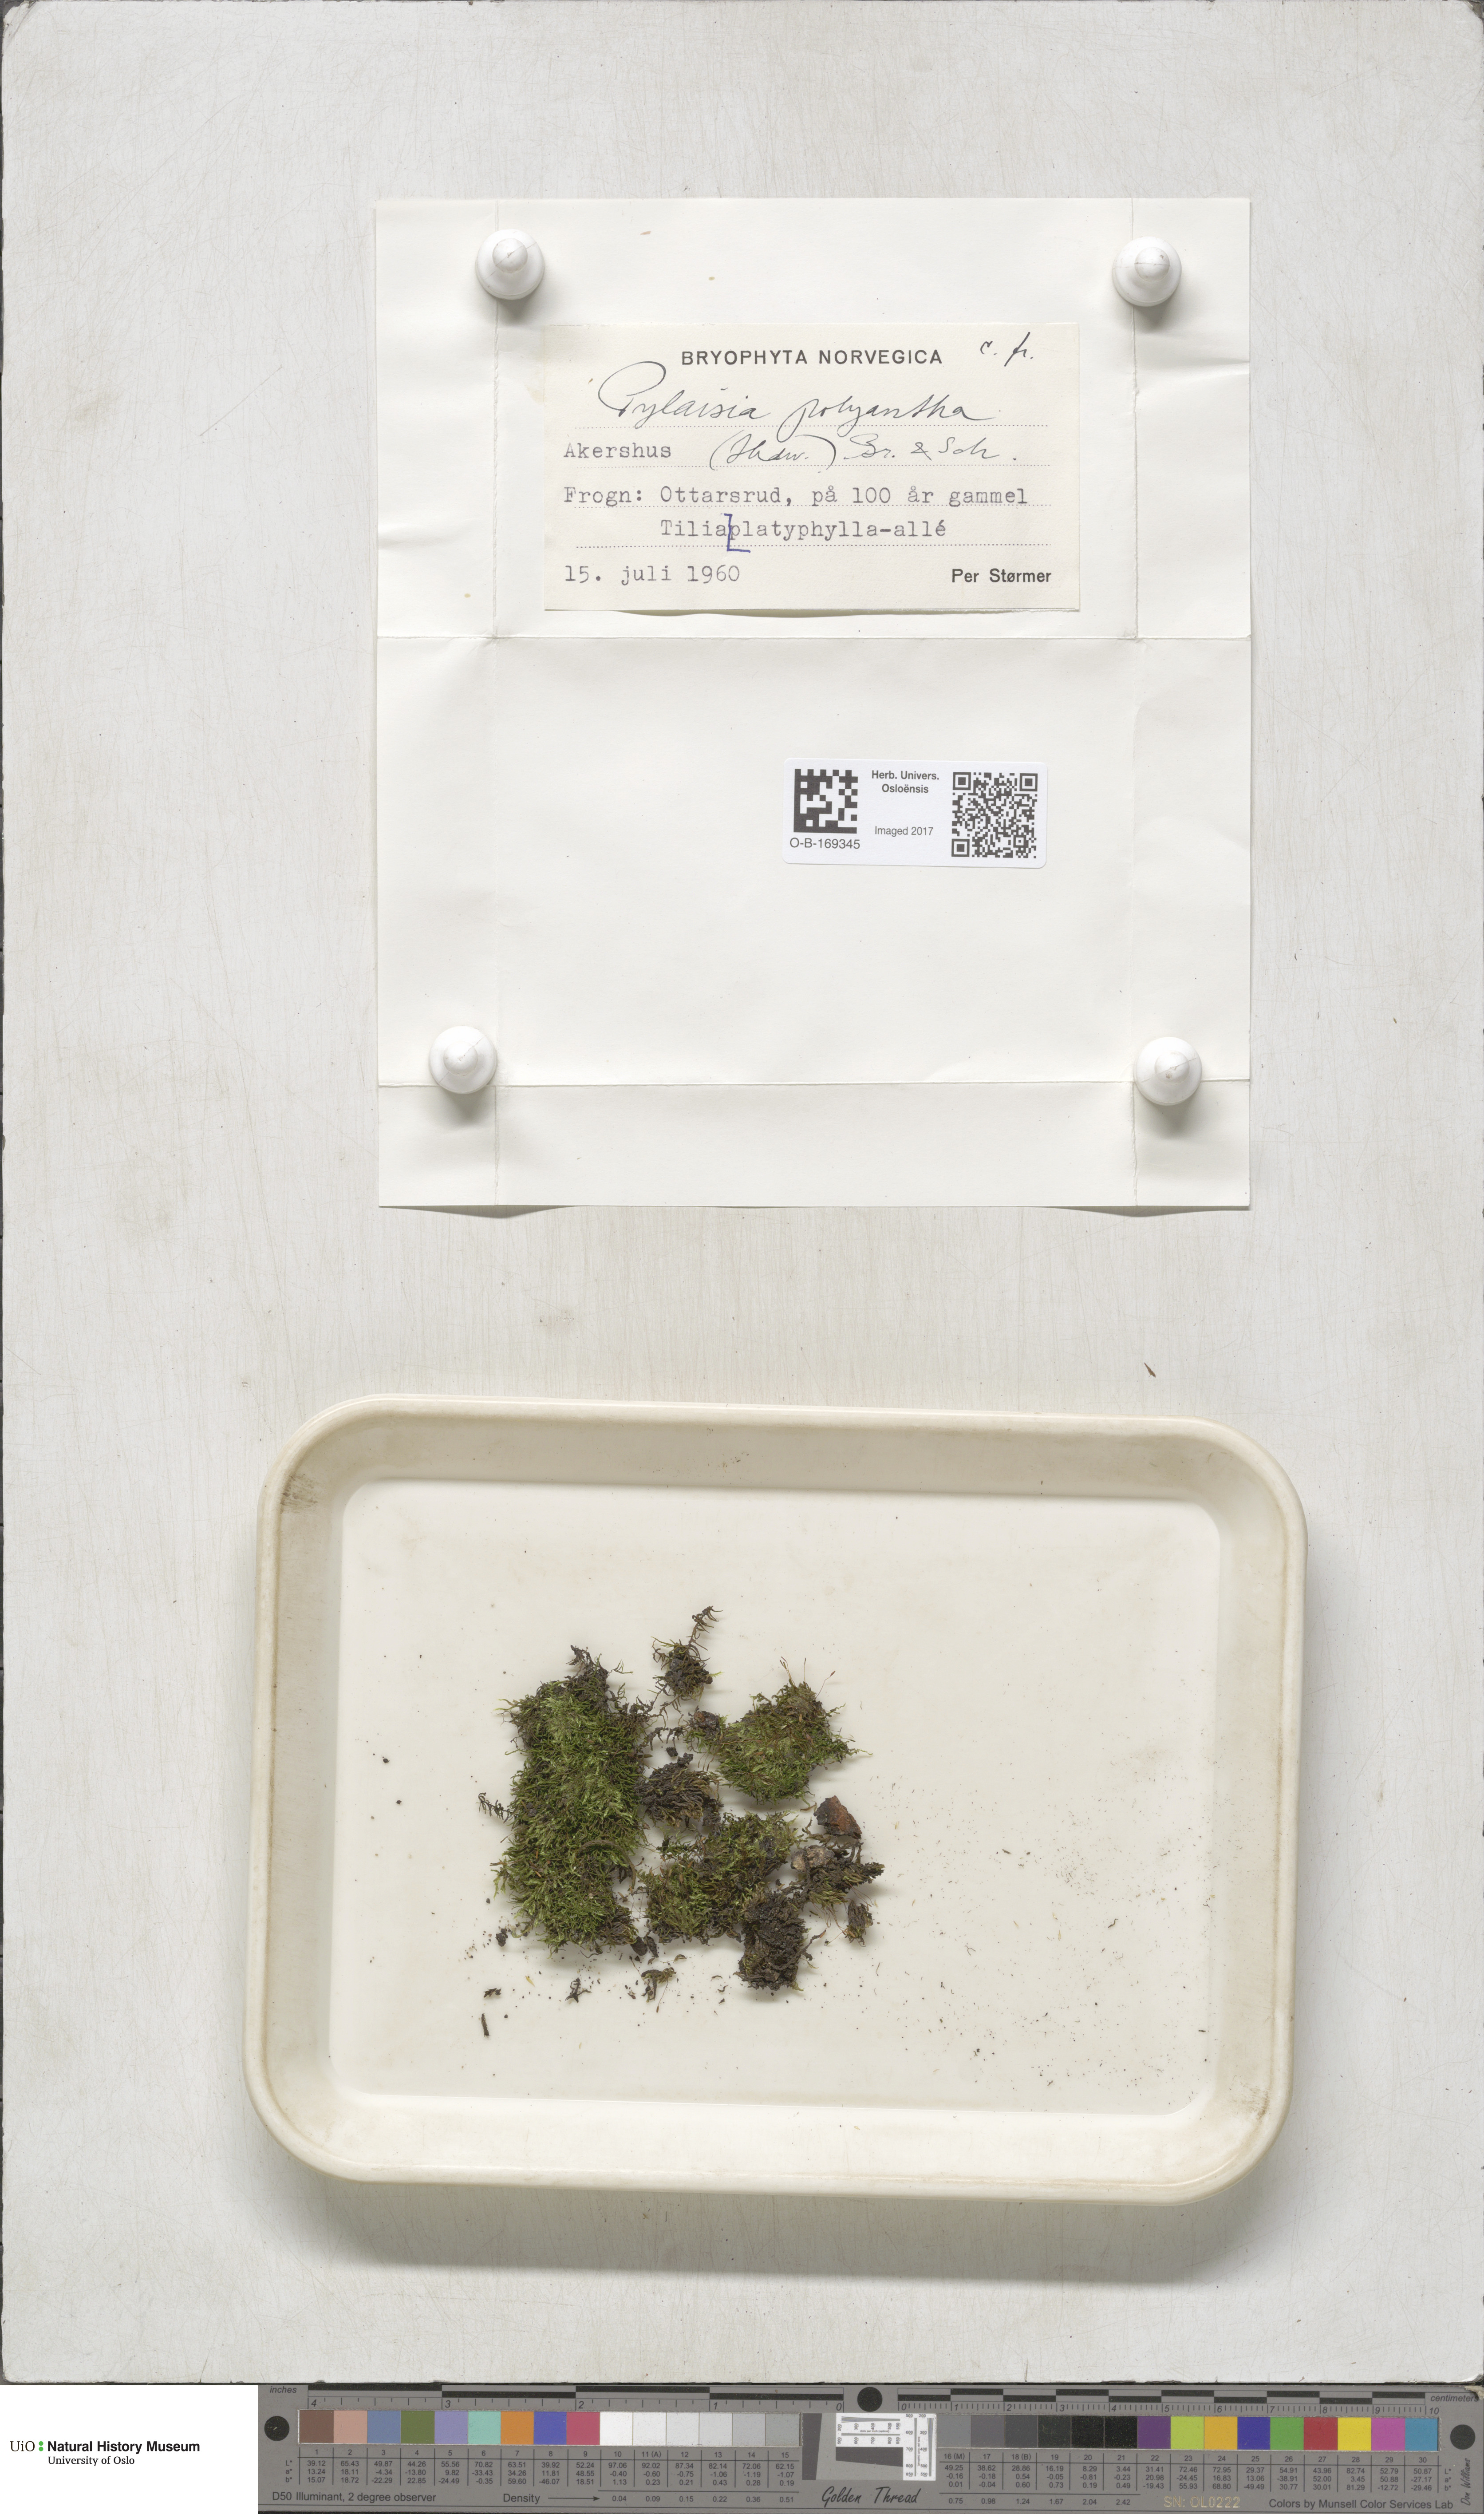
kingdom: Plantae
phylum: Bryophyta
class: Bryopsida
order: Hypnales
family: Pylaisiaceae
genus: Pylaisia
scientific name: Pylaisia polyantha
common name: Many-flowered leskea
